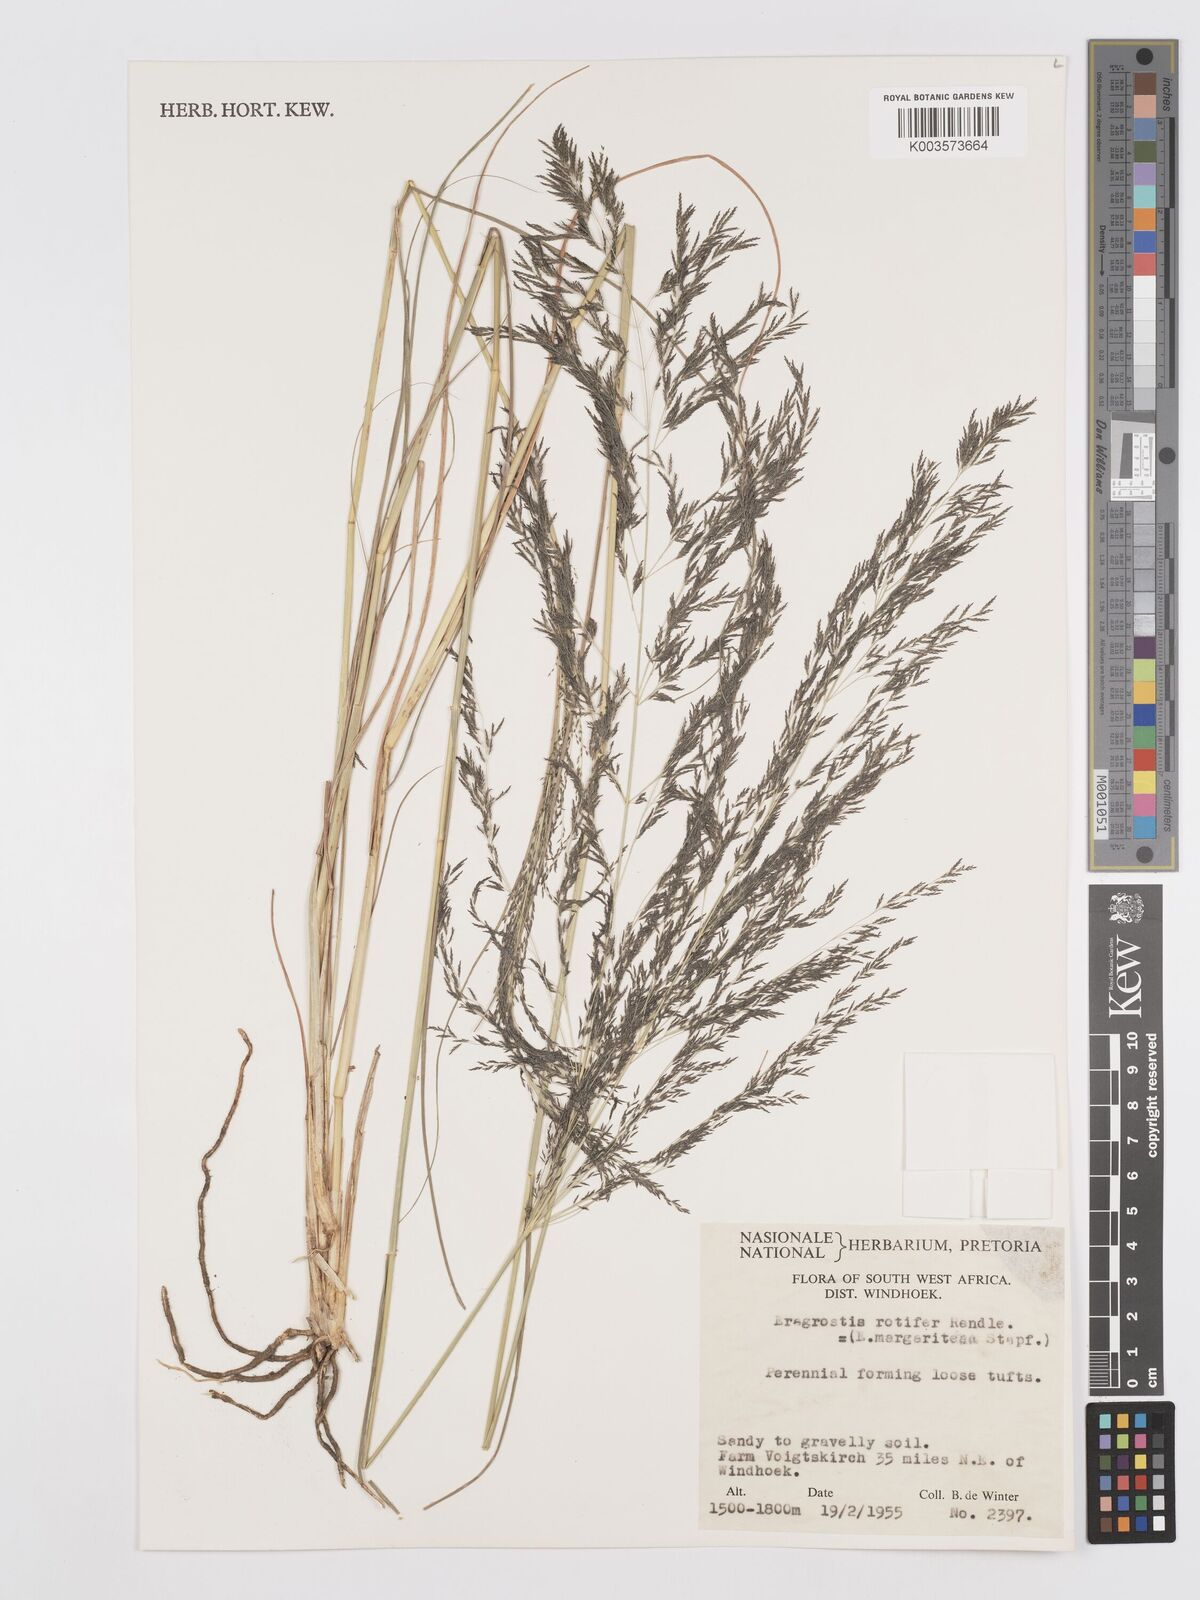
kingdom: Plantae
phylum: Tracheophyta
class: Liliopsida
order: Poales
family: Poaceae
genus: Eragrostis
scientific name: Eragrostis rotifer
